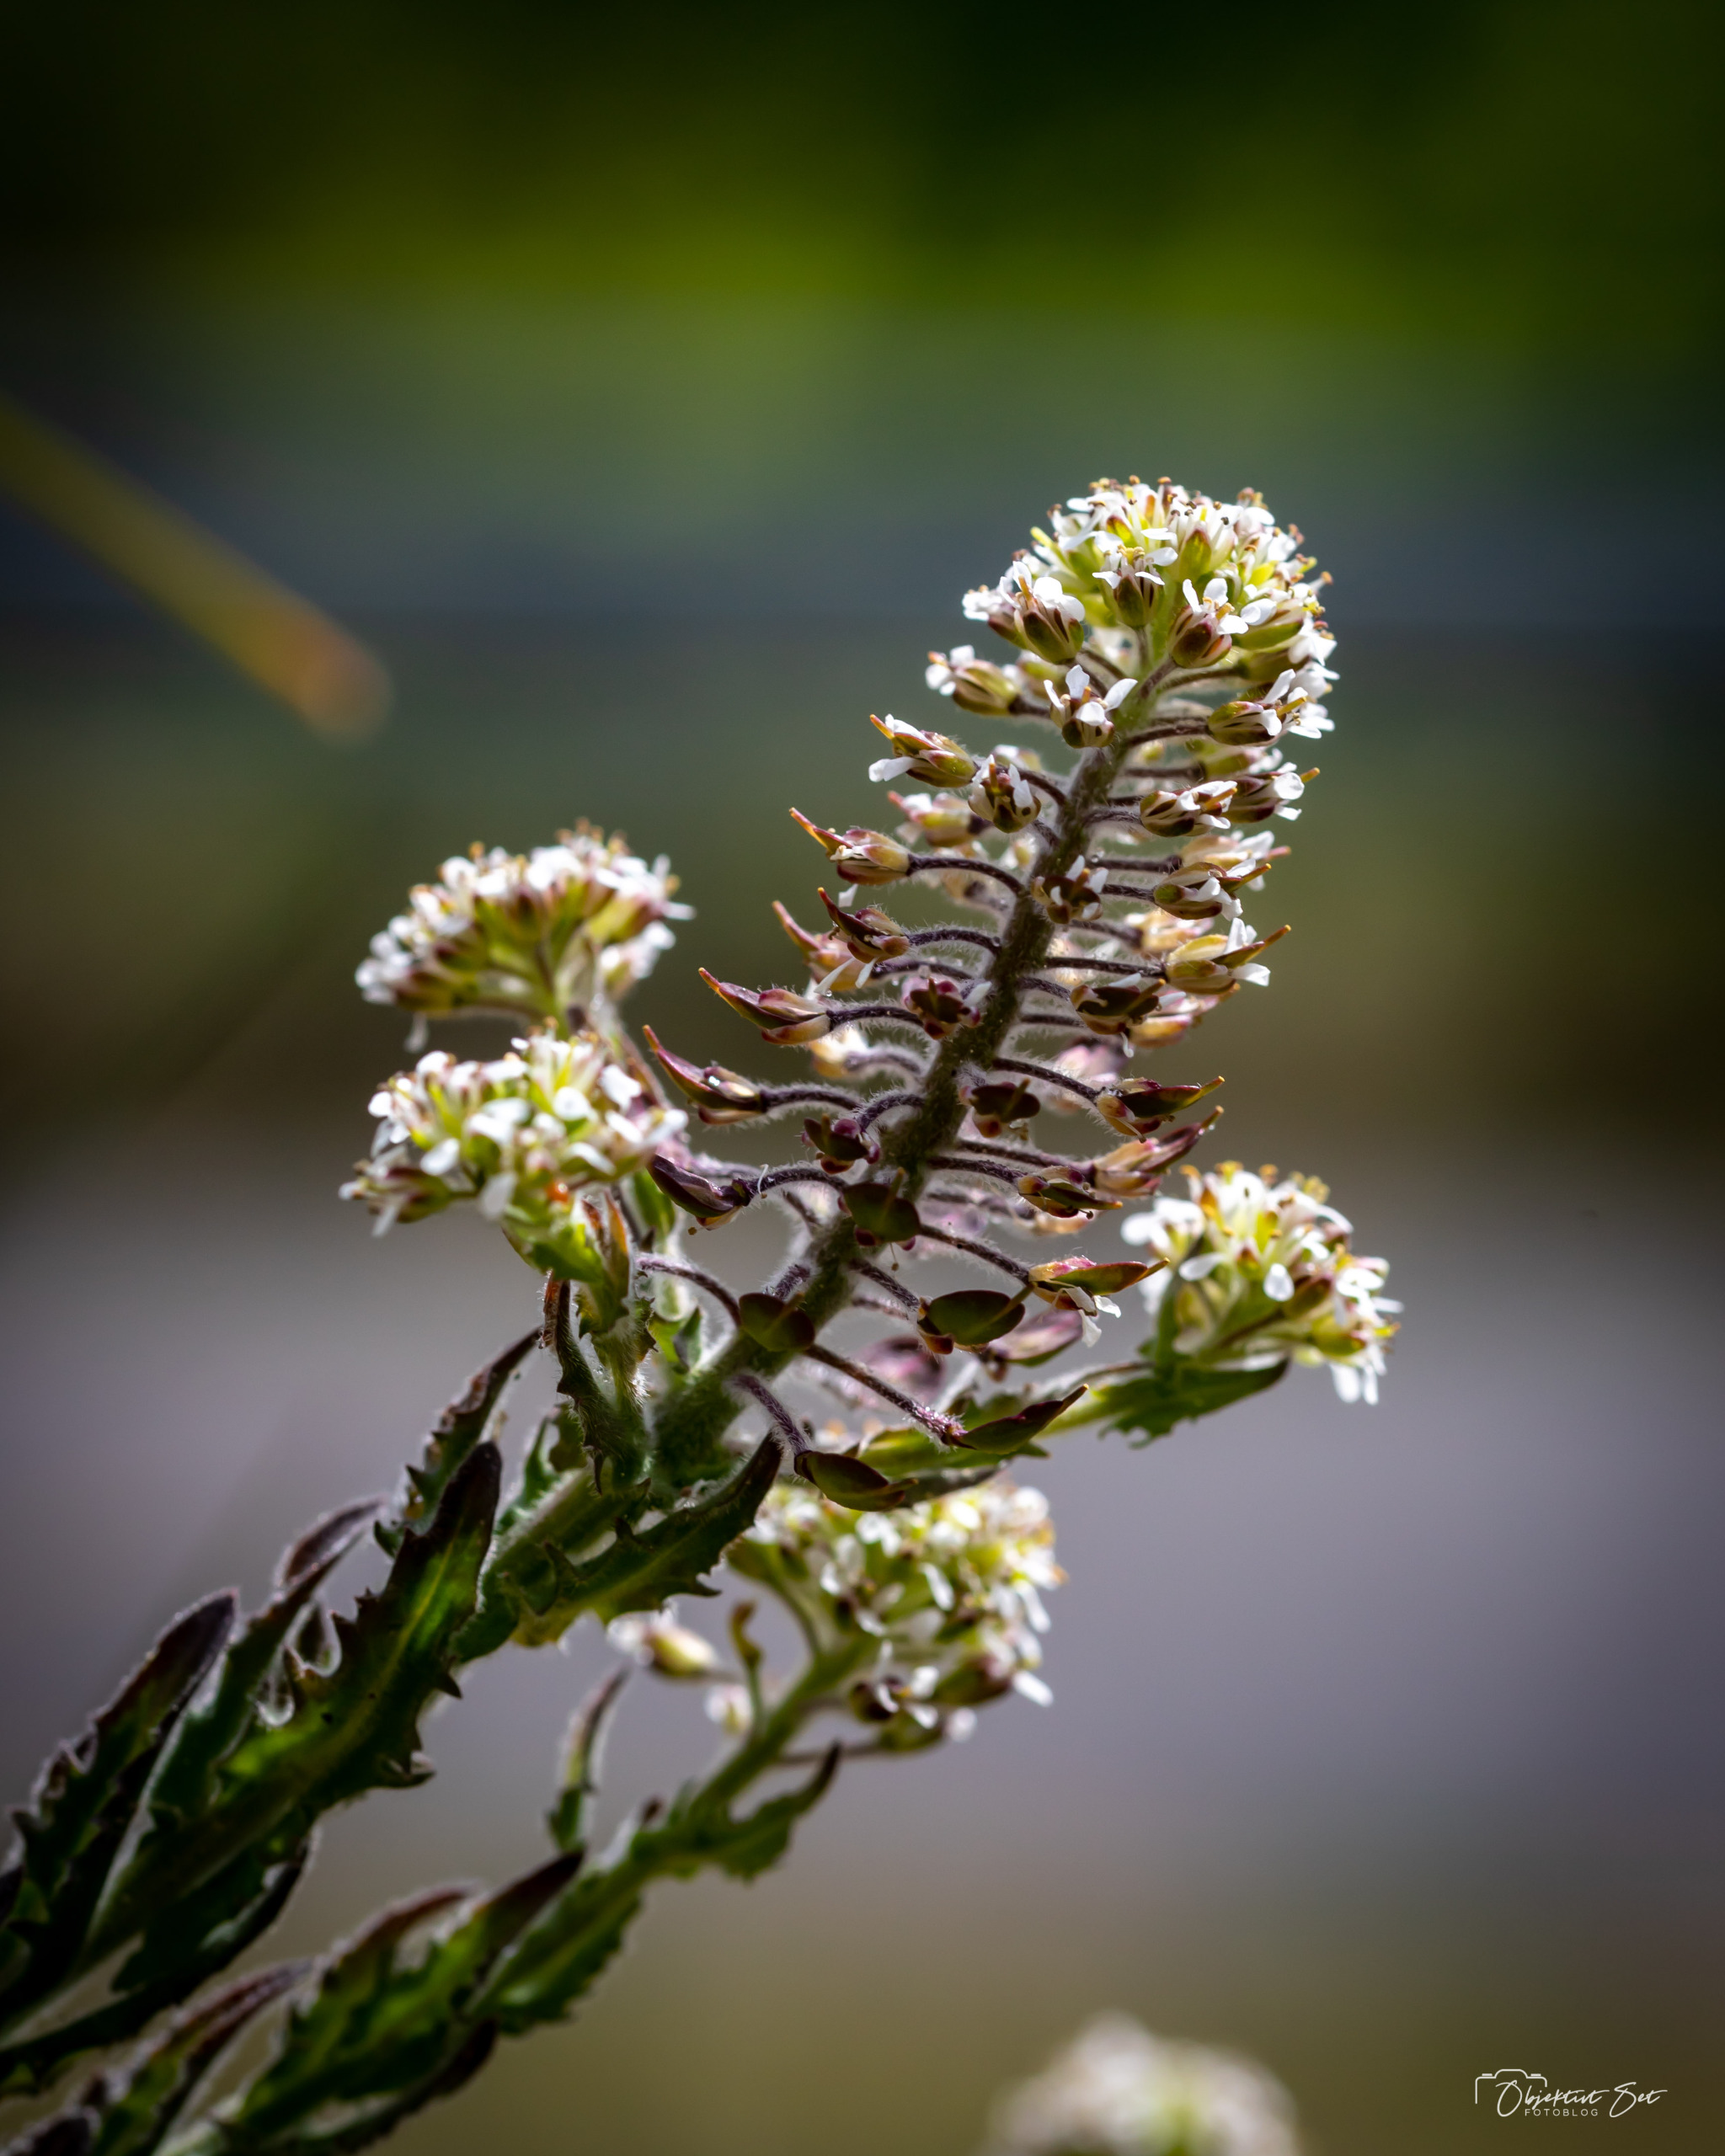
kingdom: Plantae
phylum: Tracheophyta
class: Magnoliopsida
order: Brassicales
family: Brassicaceae
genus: Lepidium
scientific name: Lepidium campestre
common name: Salomons lysestage
